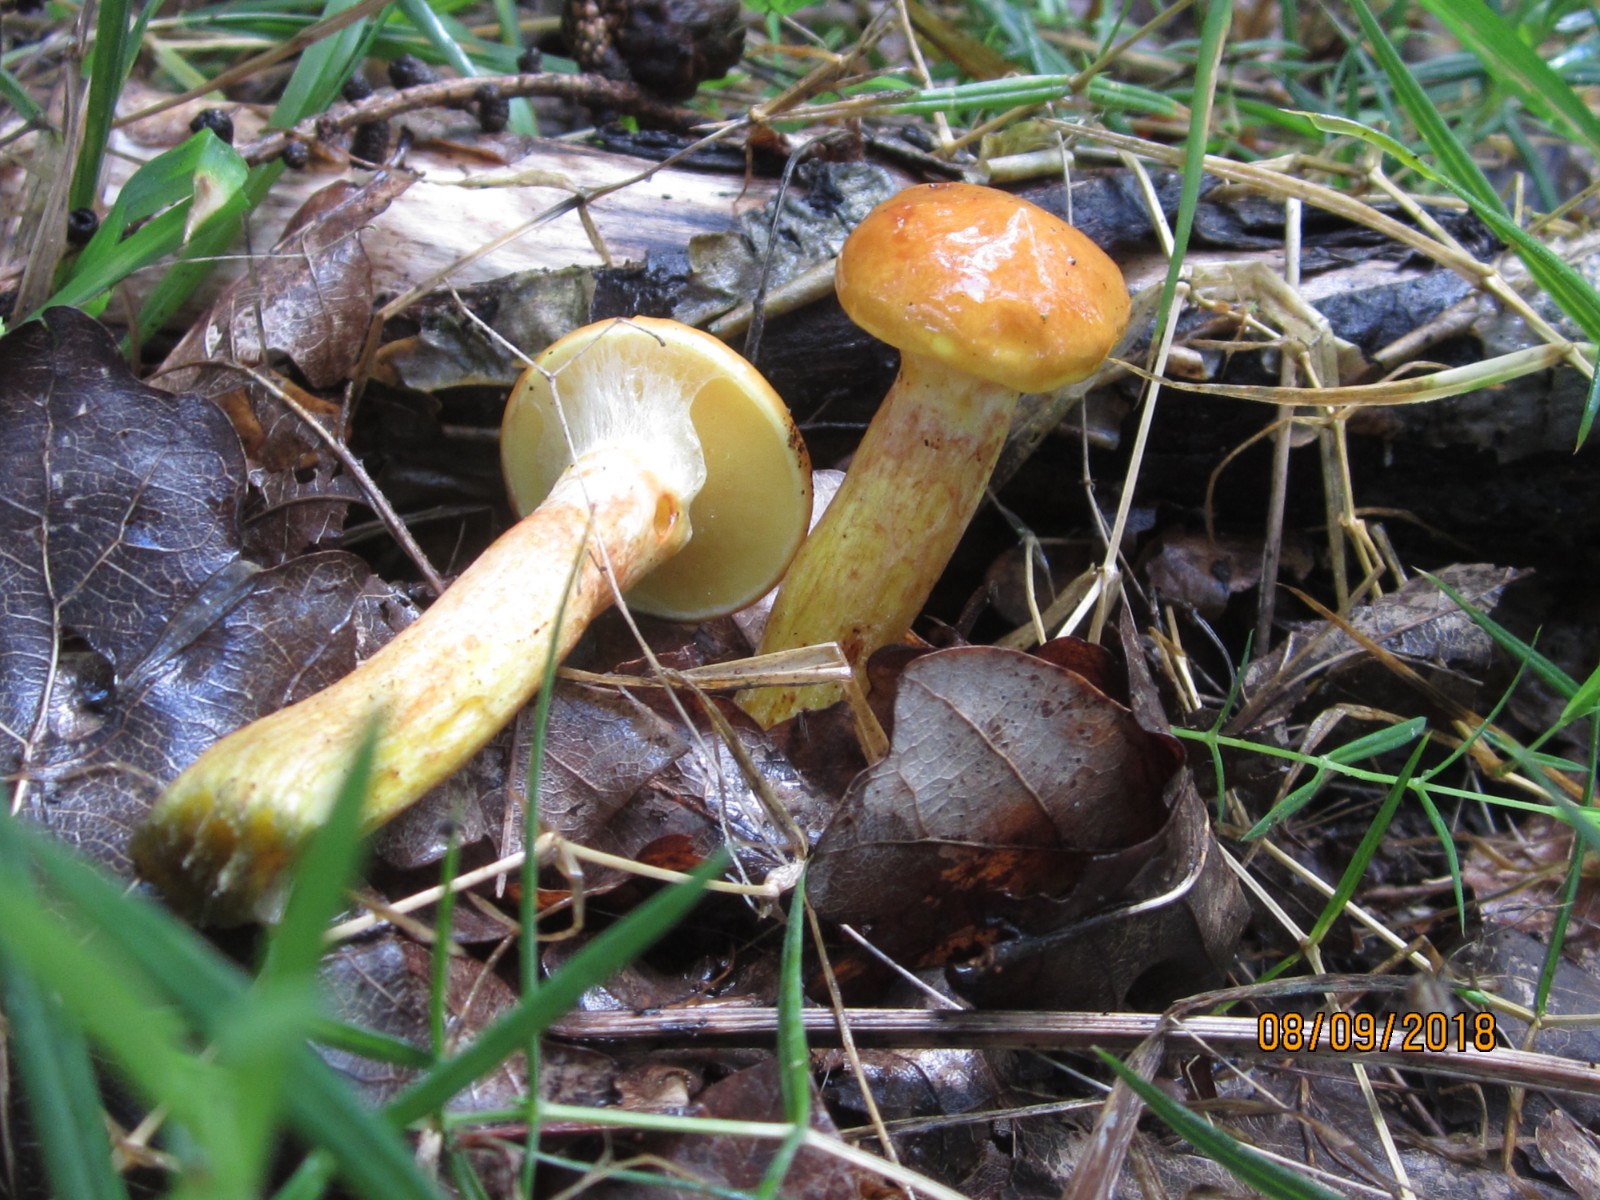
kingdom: Fungi
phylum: Basidiomycota
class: Agaricomycetes
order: Boletales
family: Suillaceae
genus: Suillus
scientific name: Suillus grevillei
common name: lærke-slimrørhat
